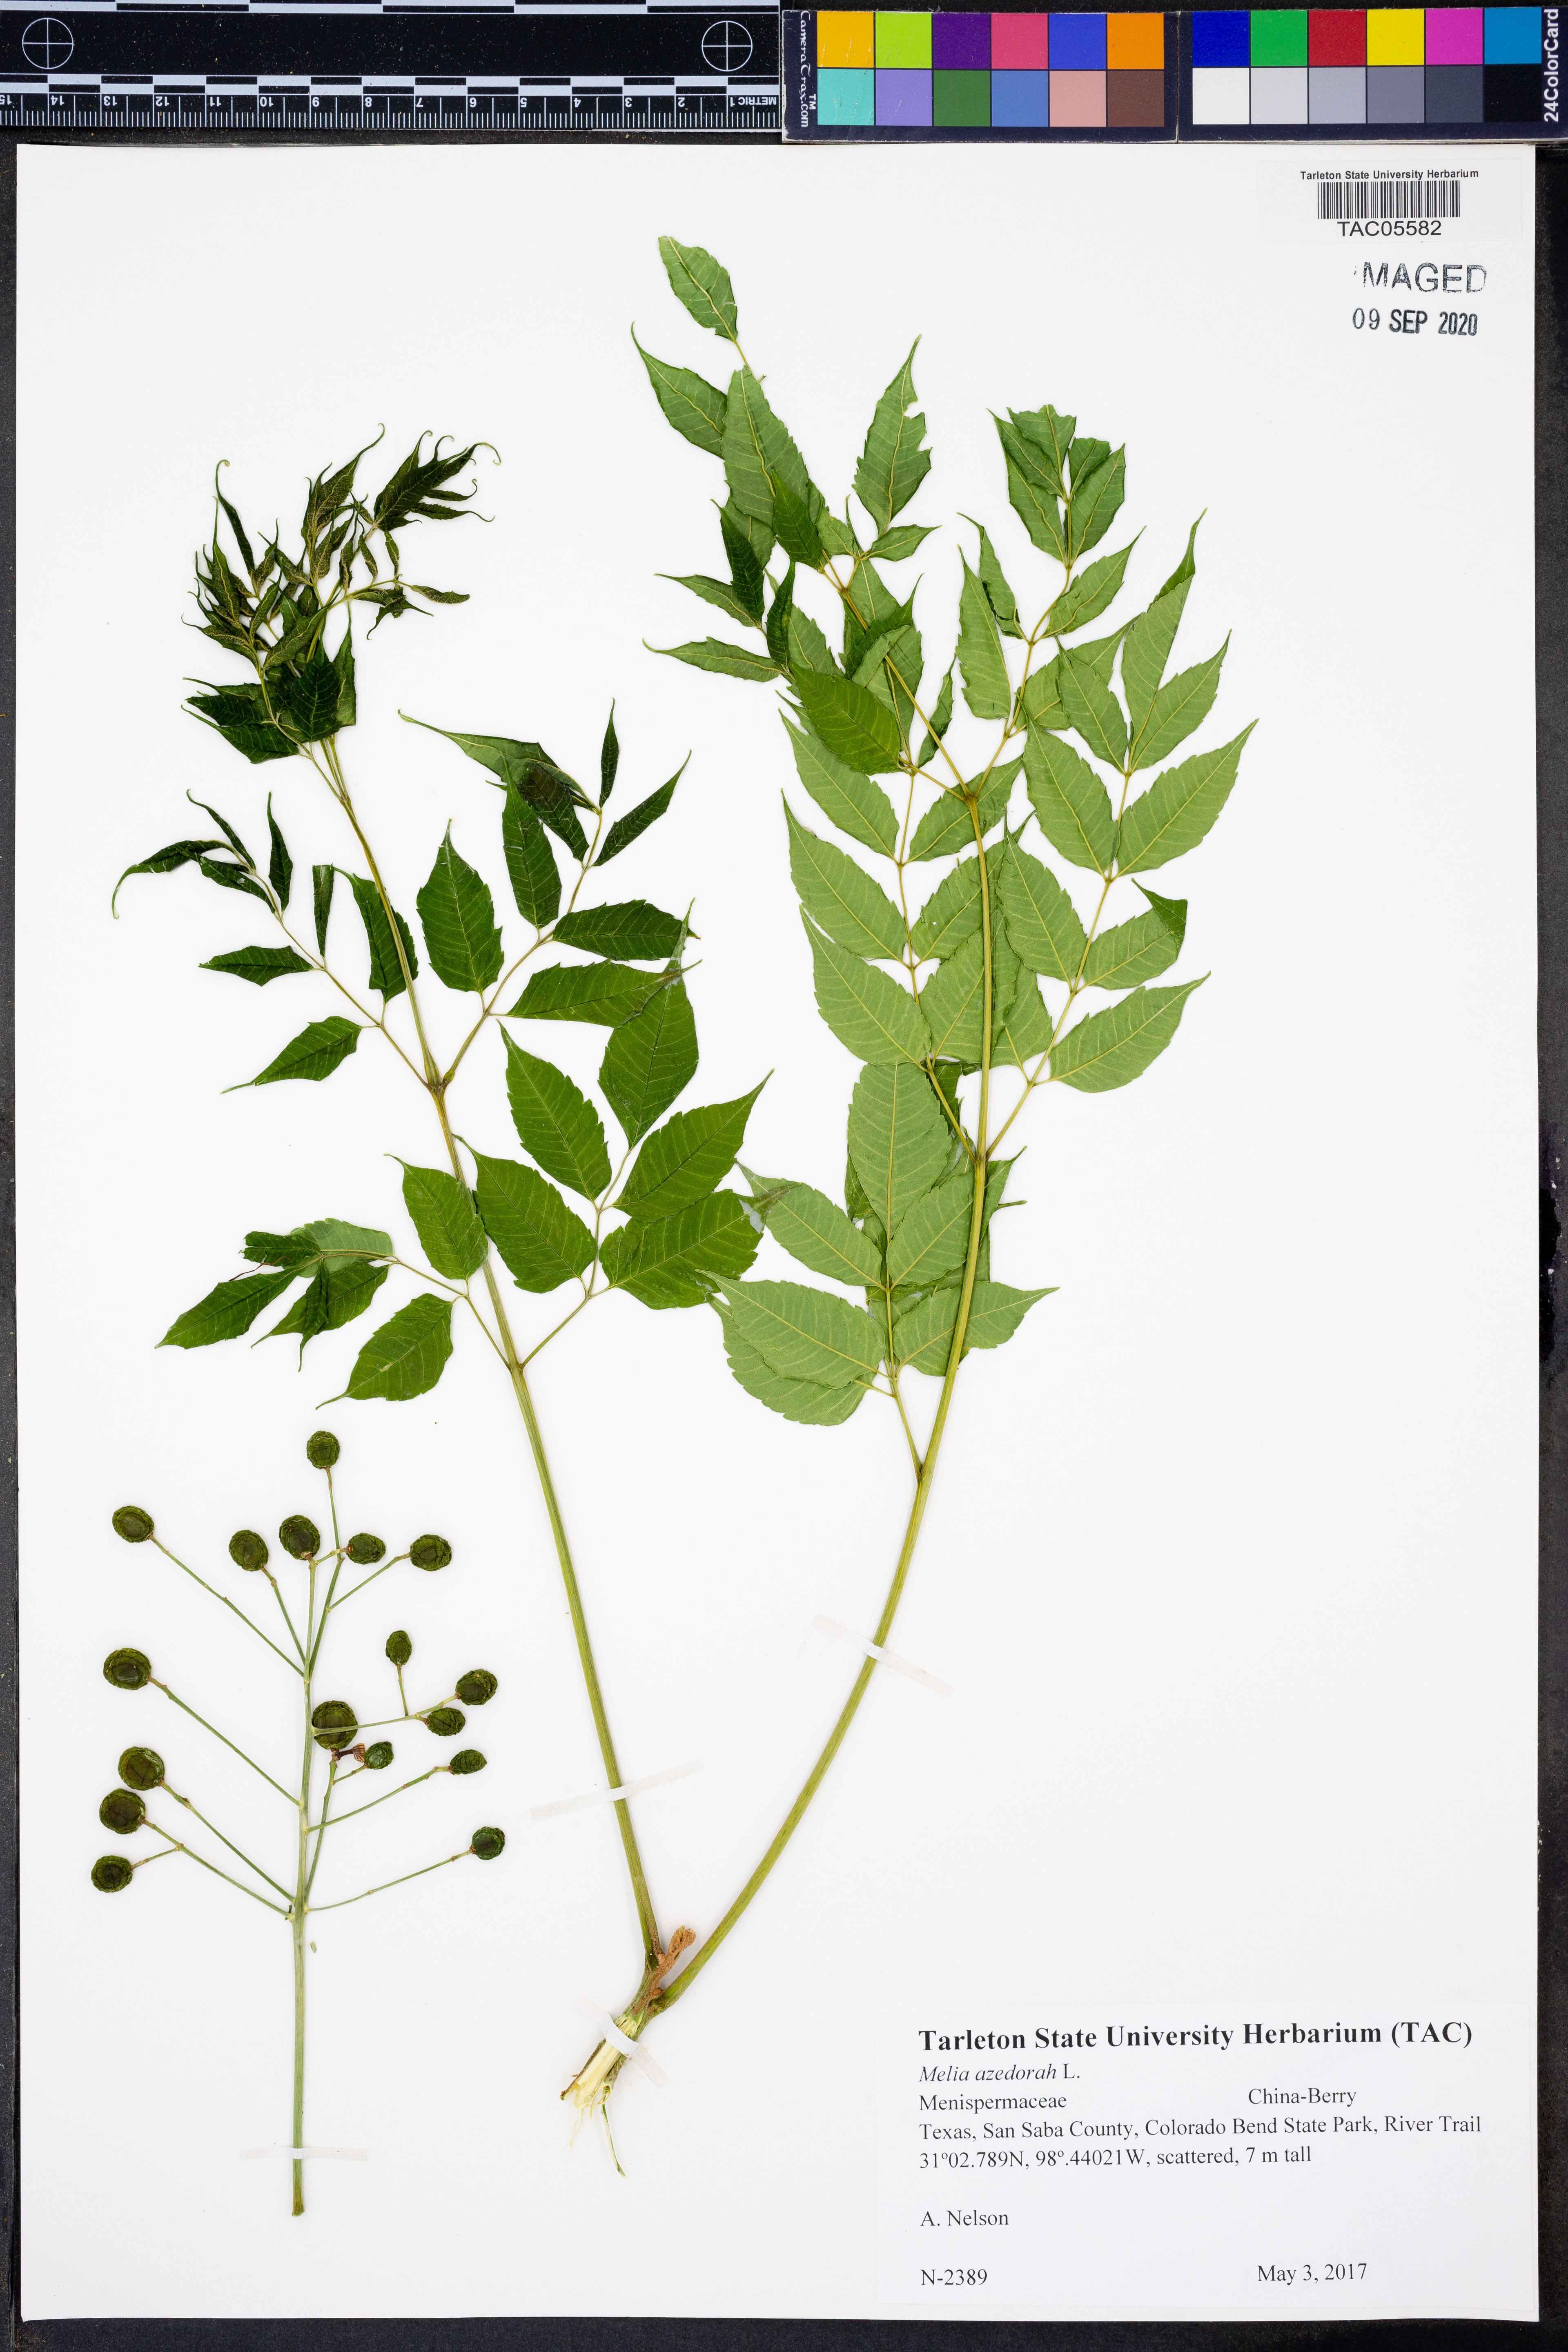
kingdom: Plantae
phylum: Tracheophyta
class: Magnoliopsida
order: Sapindales
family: Meliaceae
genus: Melia
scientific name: Melia azedarach
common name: Chinaberrytree
